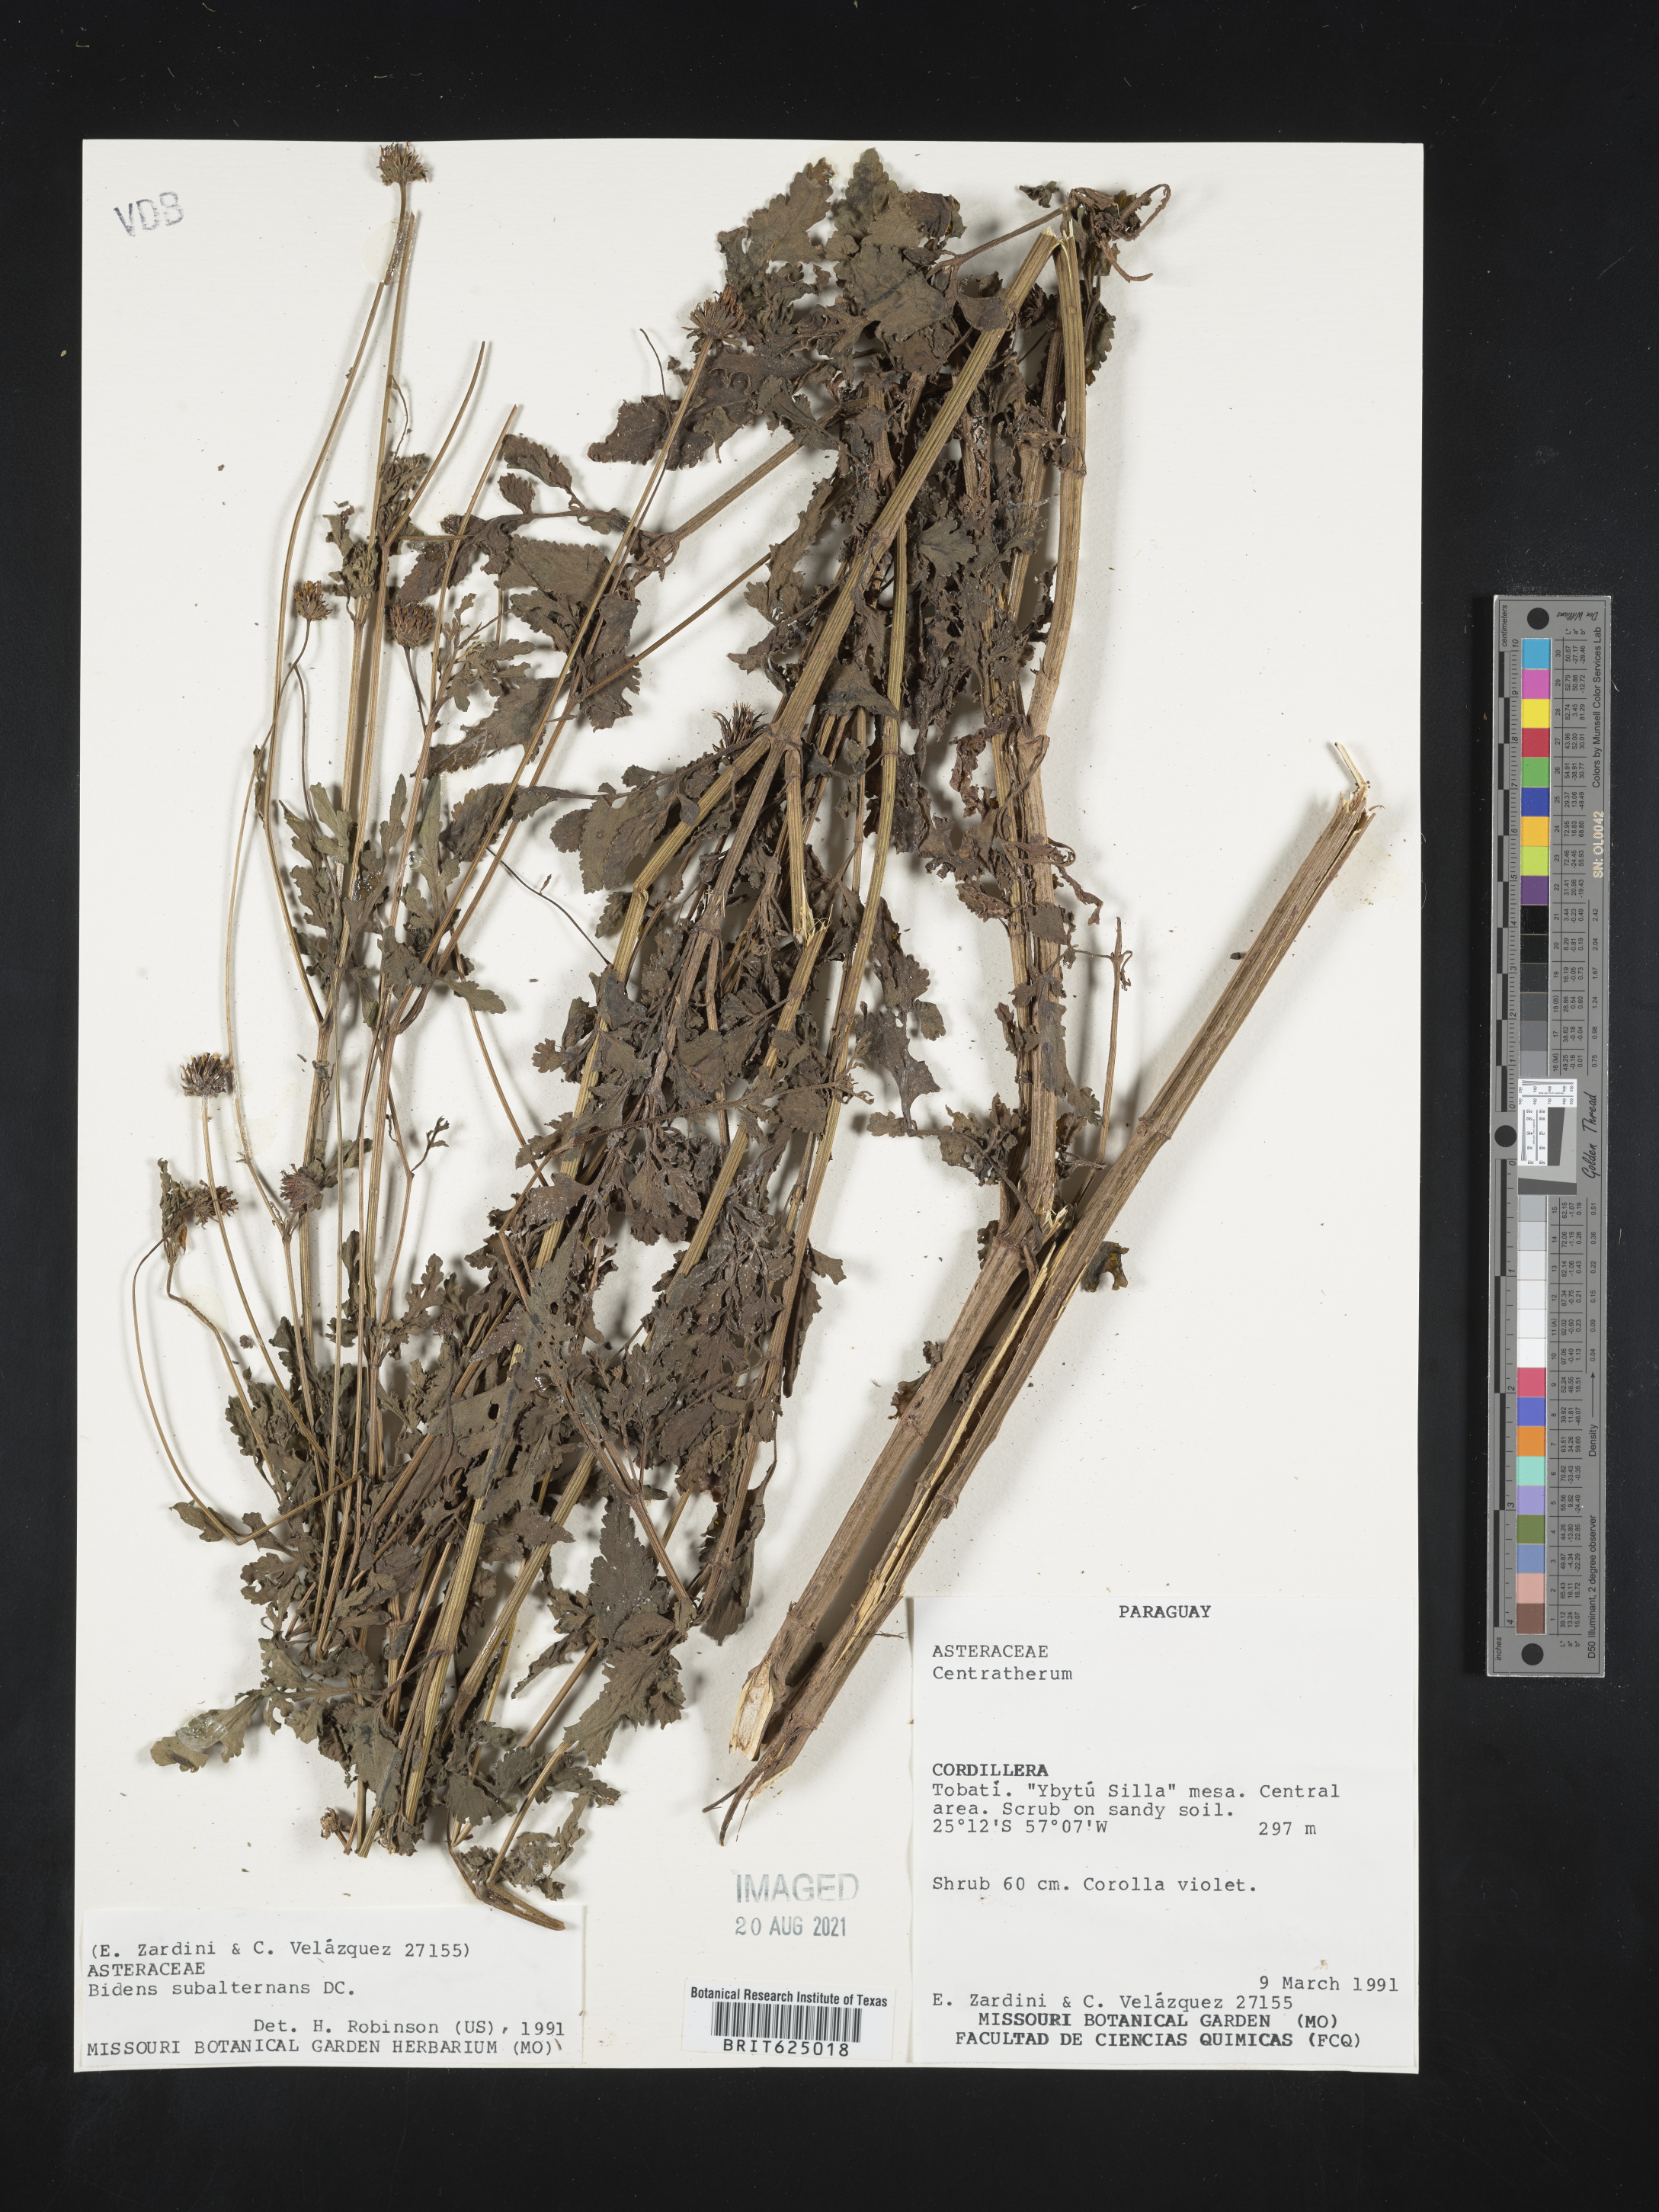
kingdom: Plantae
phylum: Tracheophyta
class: Magnoliopsida
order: Asterales
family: Asteraceae
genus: Bidens
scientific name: Bidens subalternans
